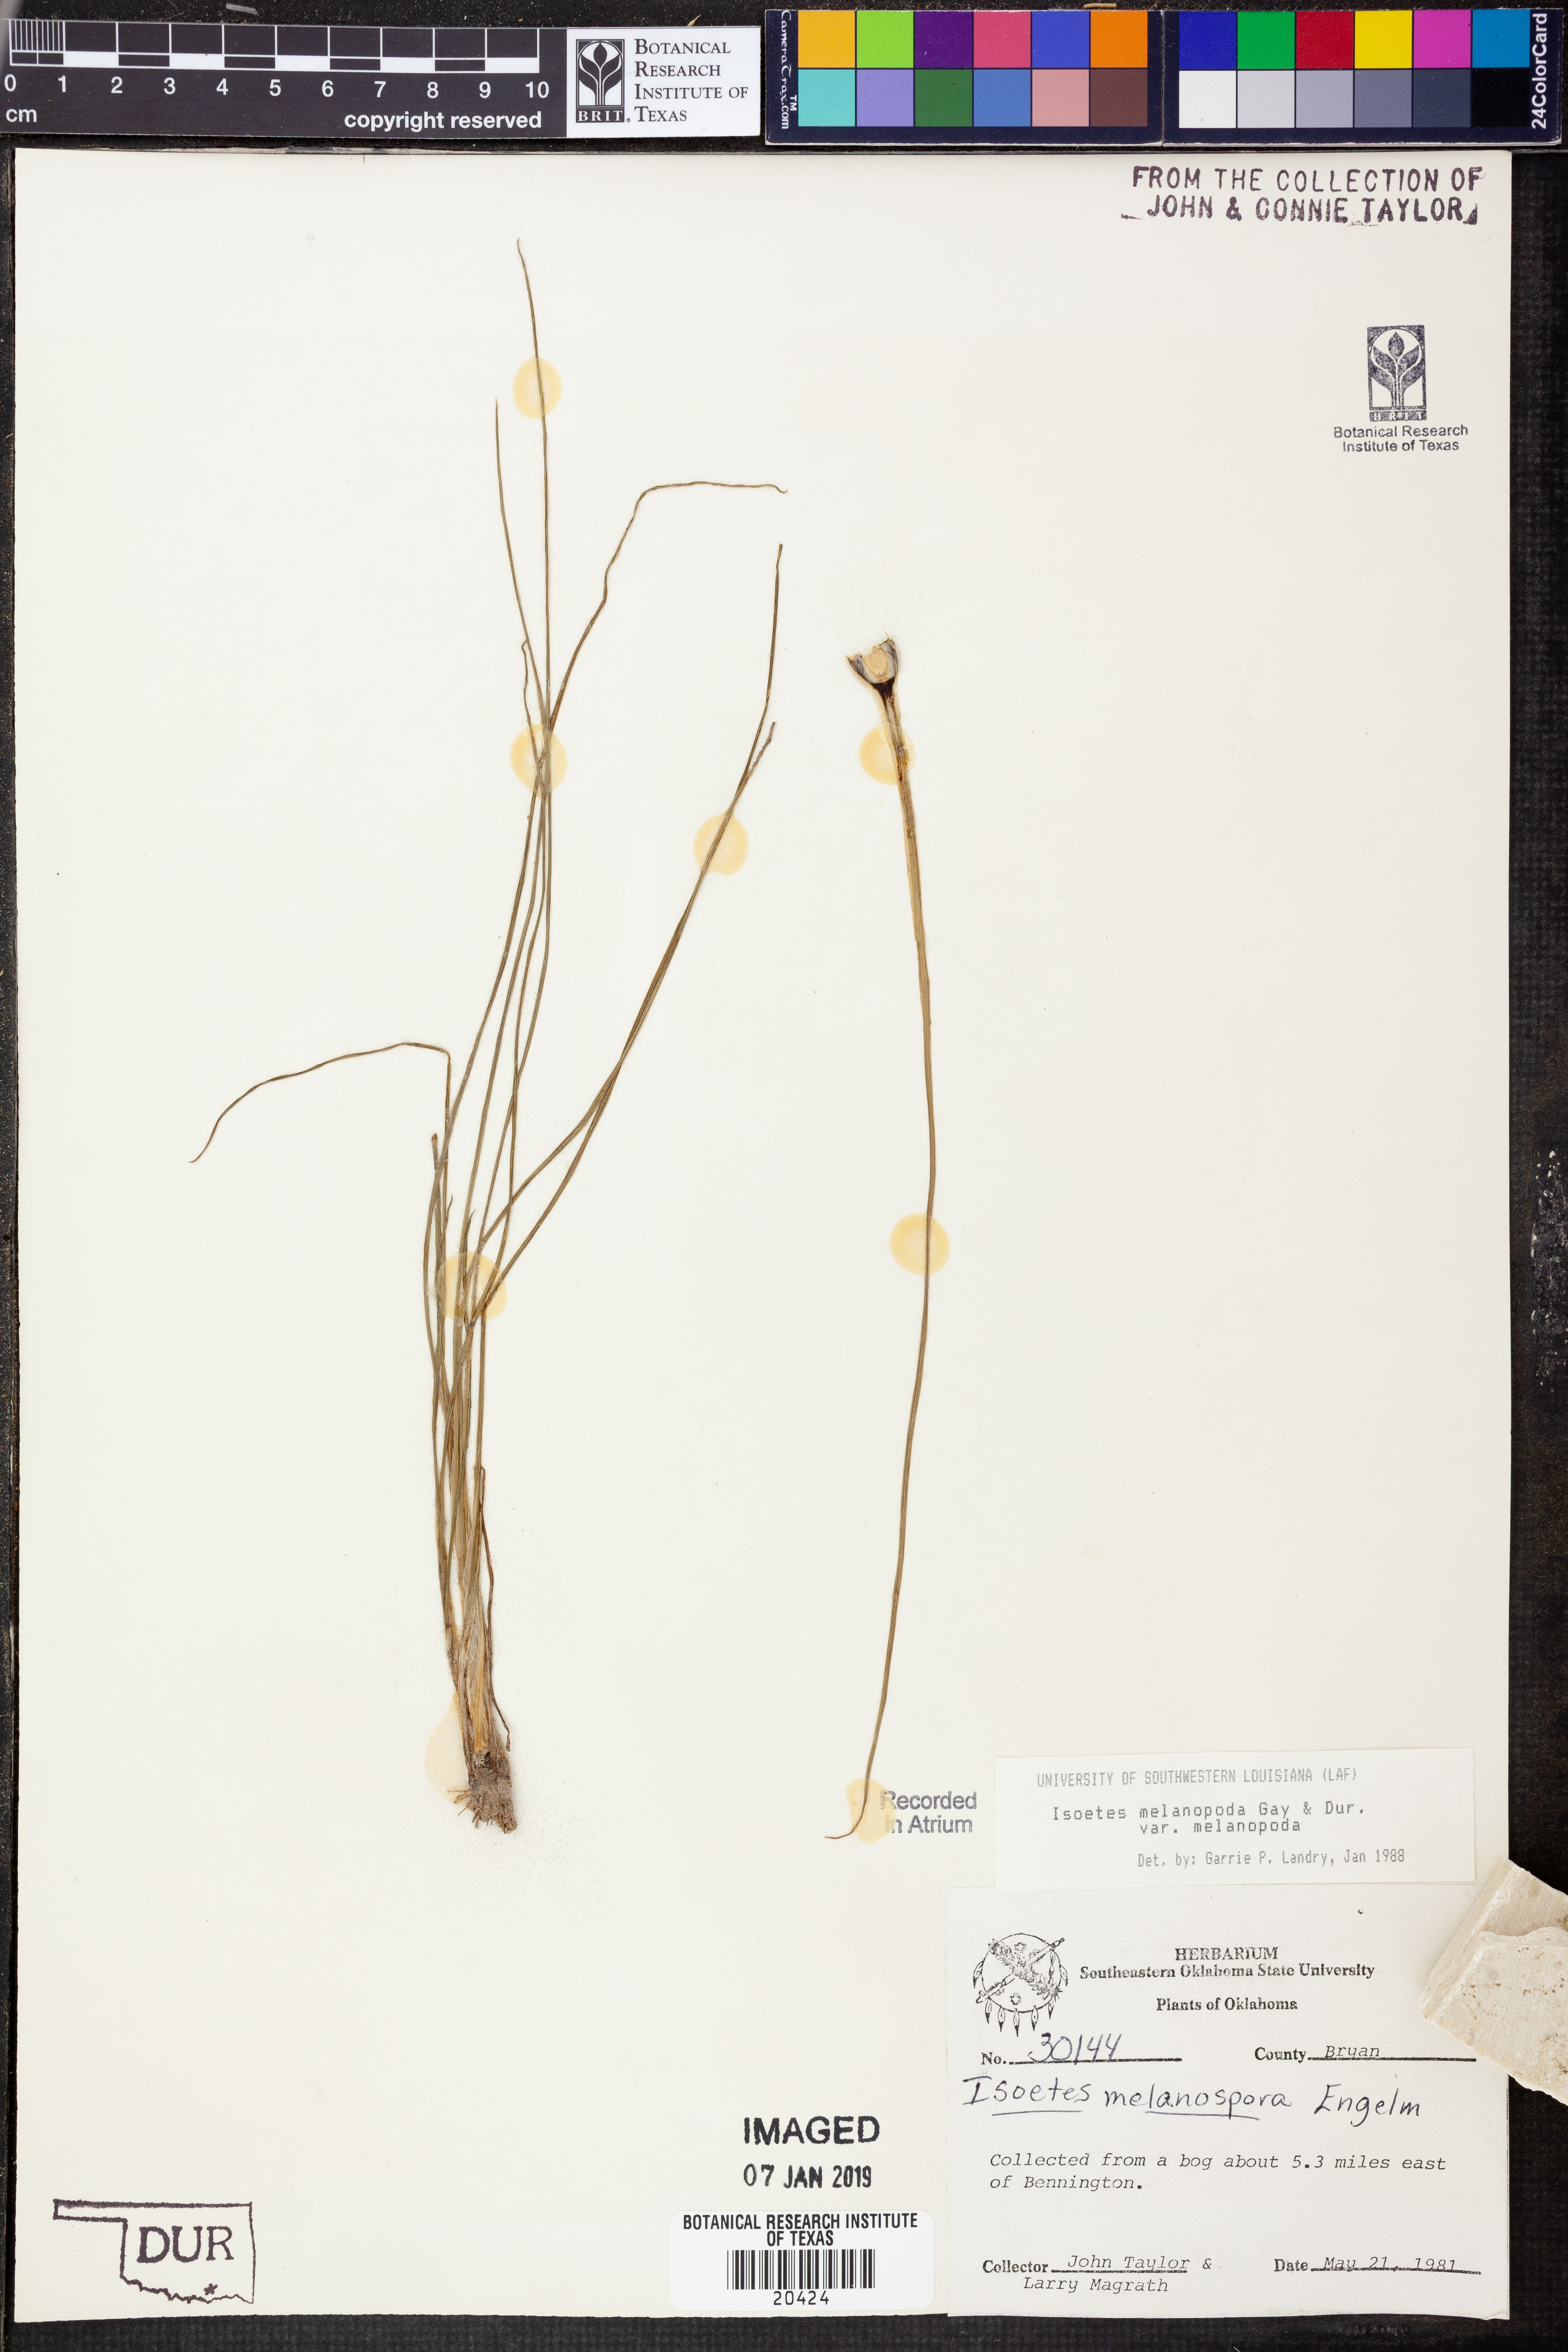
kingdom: Plantae
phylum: Tracheophyta
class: Lycopodiopsida
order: Isoetales
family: Isoetaceae
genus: Isoetes
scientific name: Isoetes melanopoda
